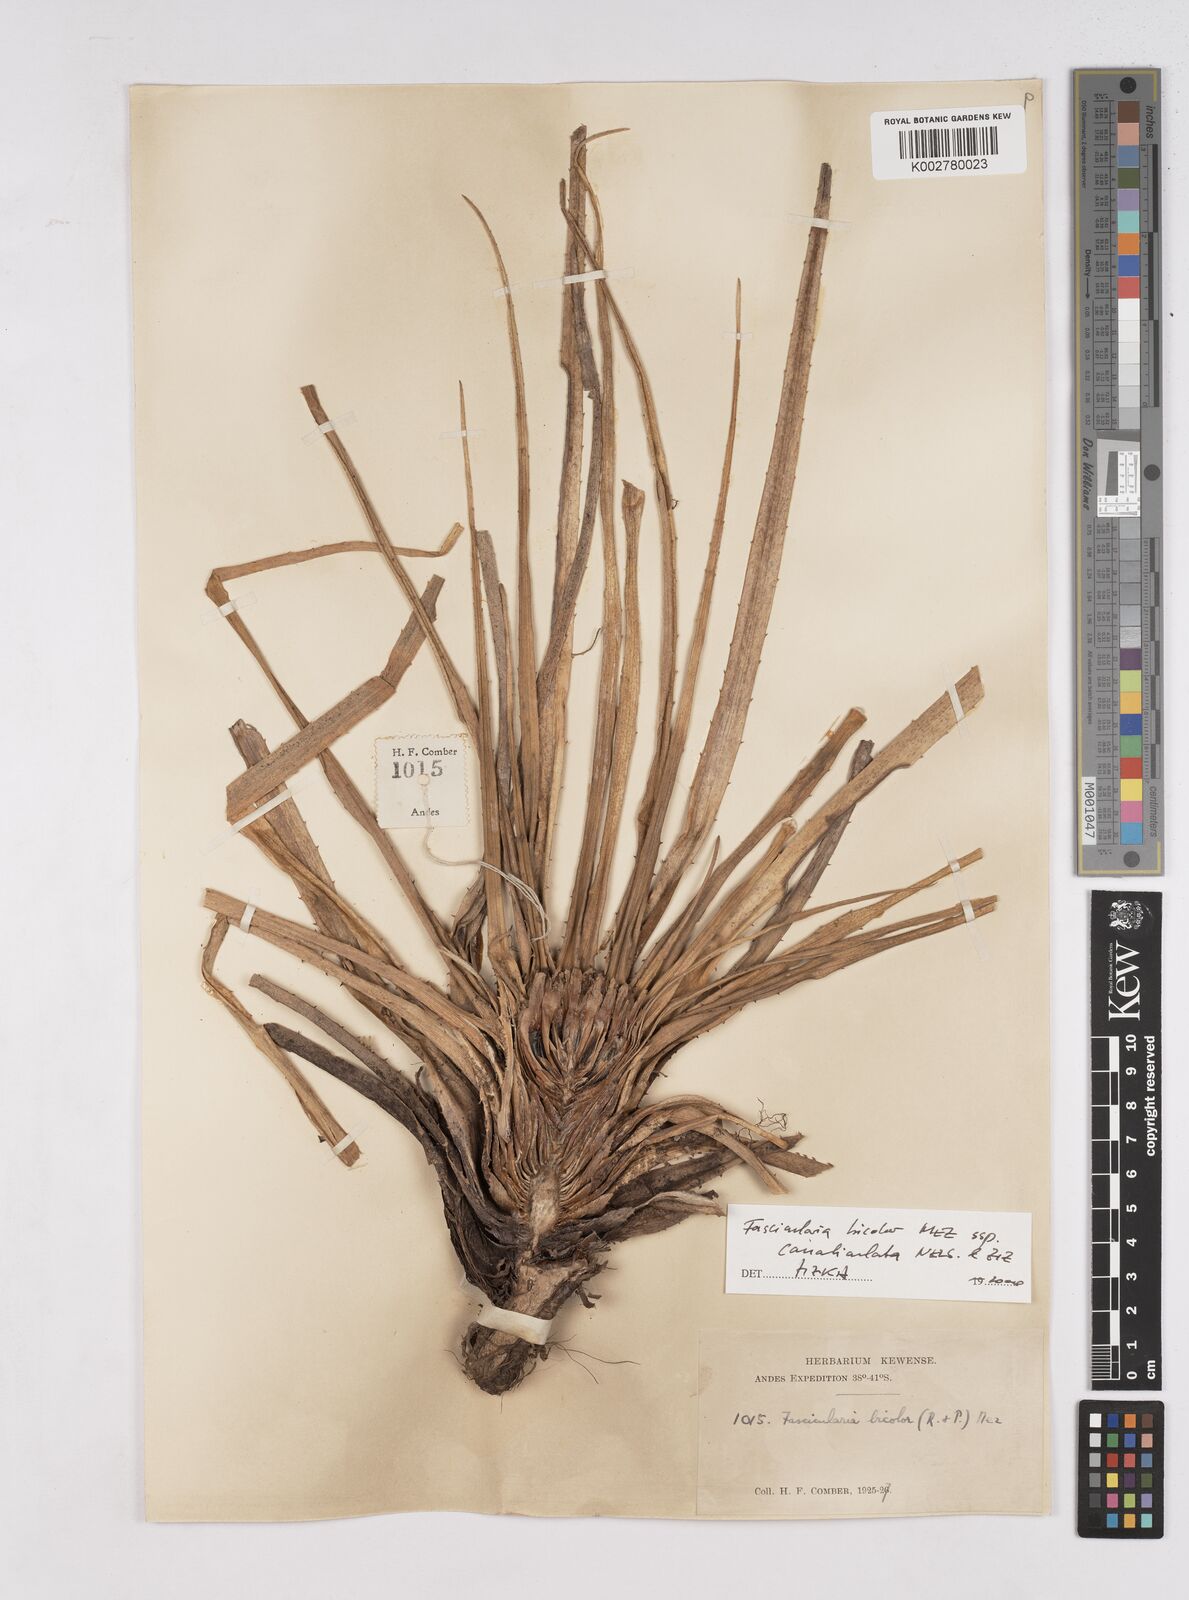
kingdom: Plantae
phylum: Tracheophyta
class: Liliopsida
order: Poales
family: Bromeliaceae
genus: Fascicularia
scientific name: Fascicularia bicolor
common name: Rhodostachys
